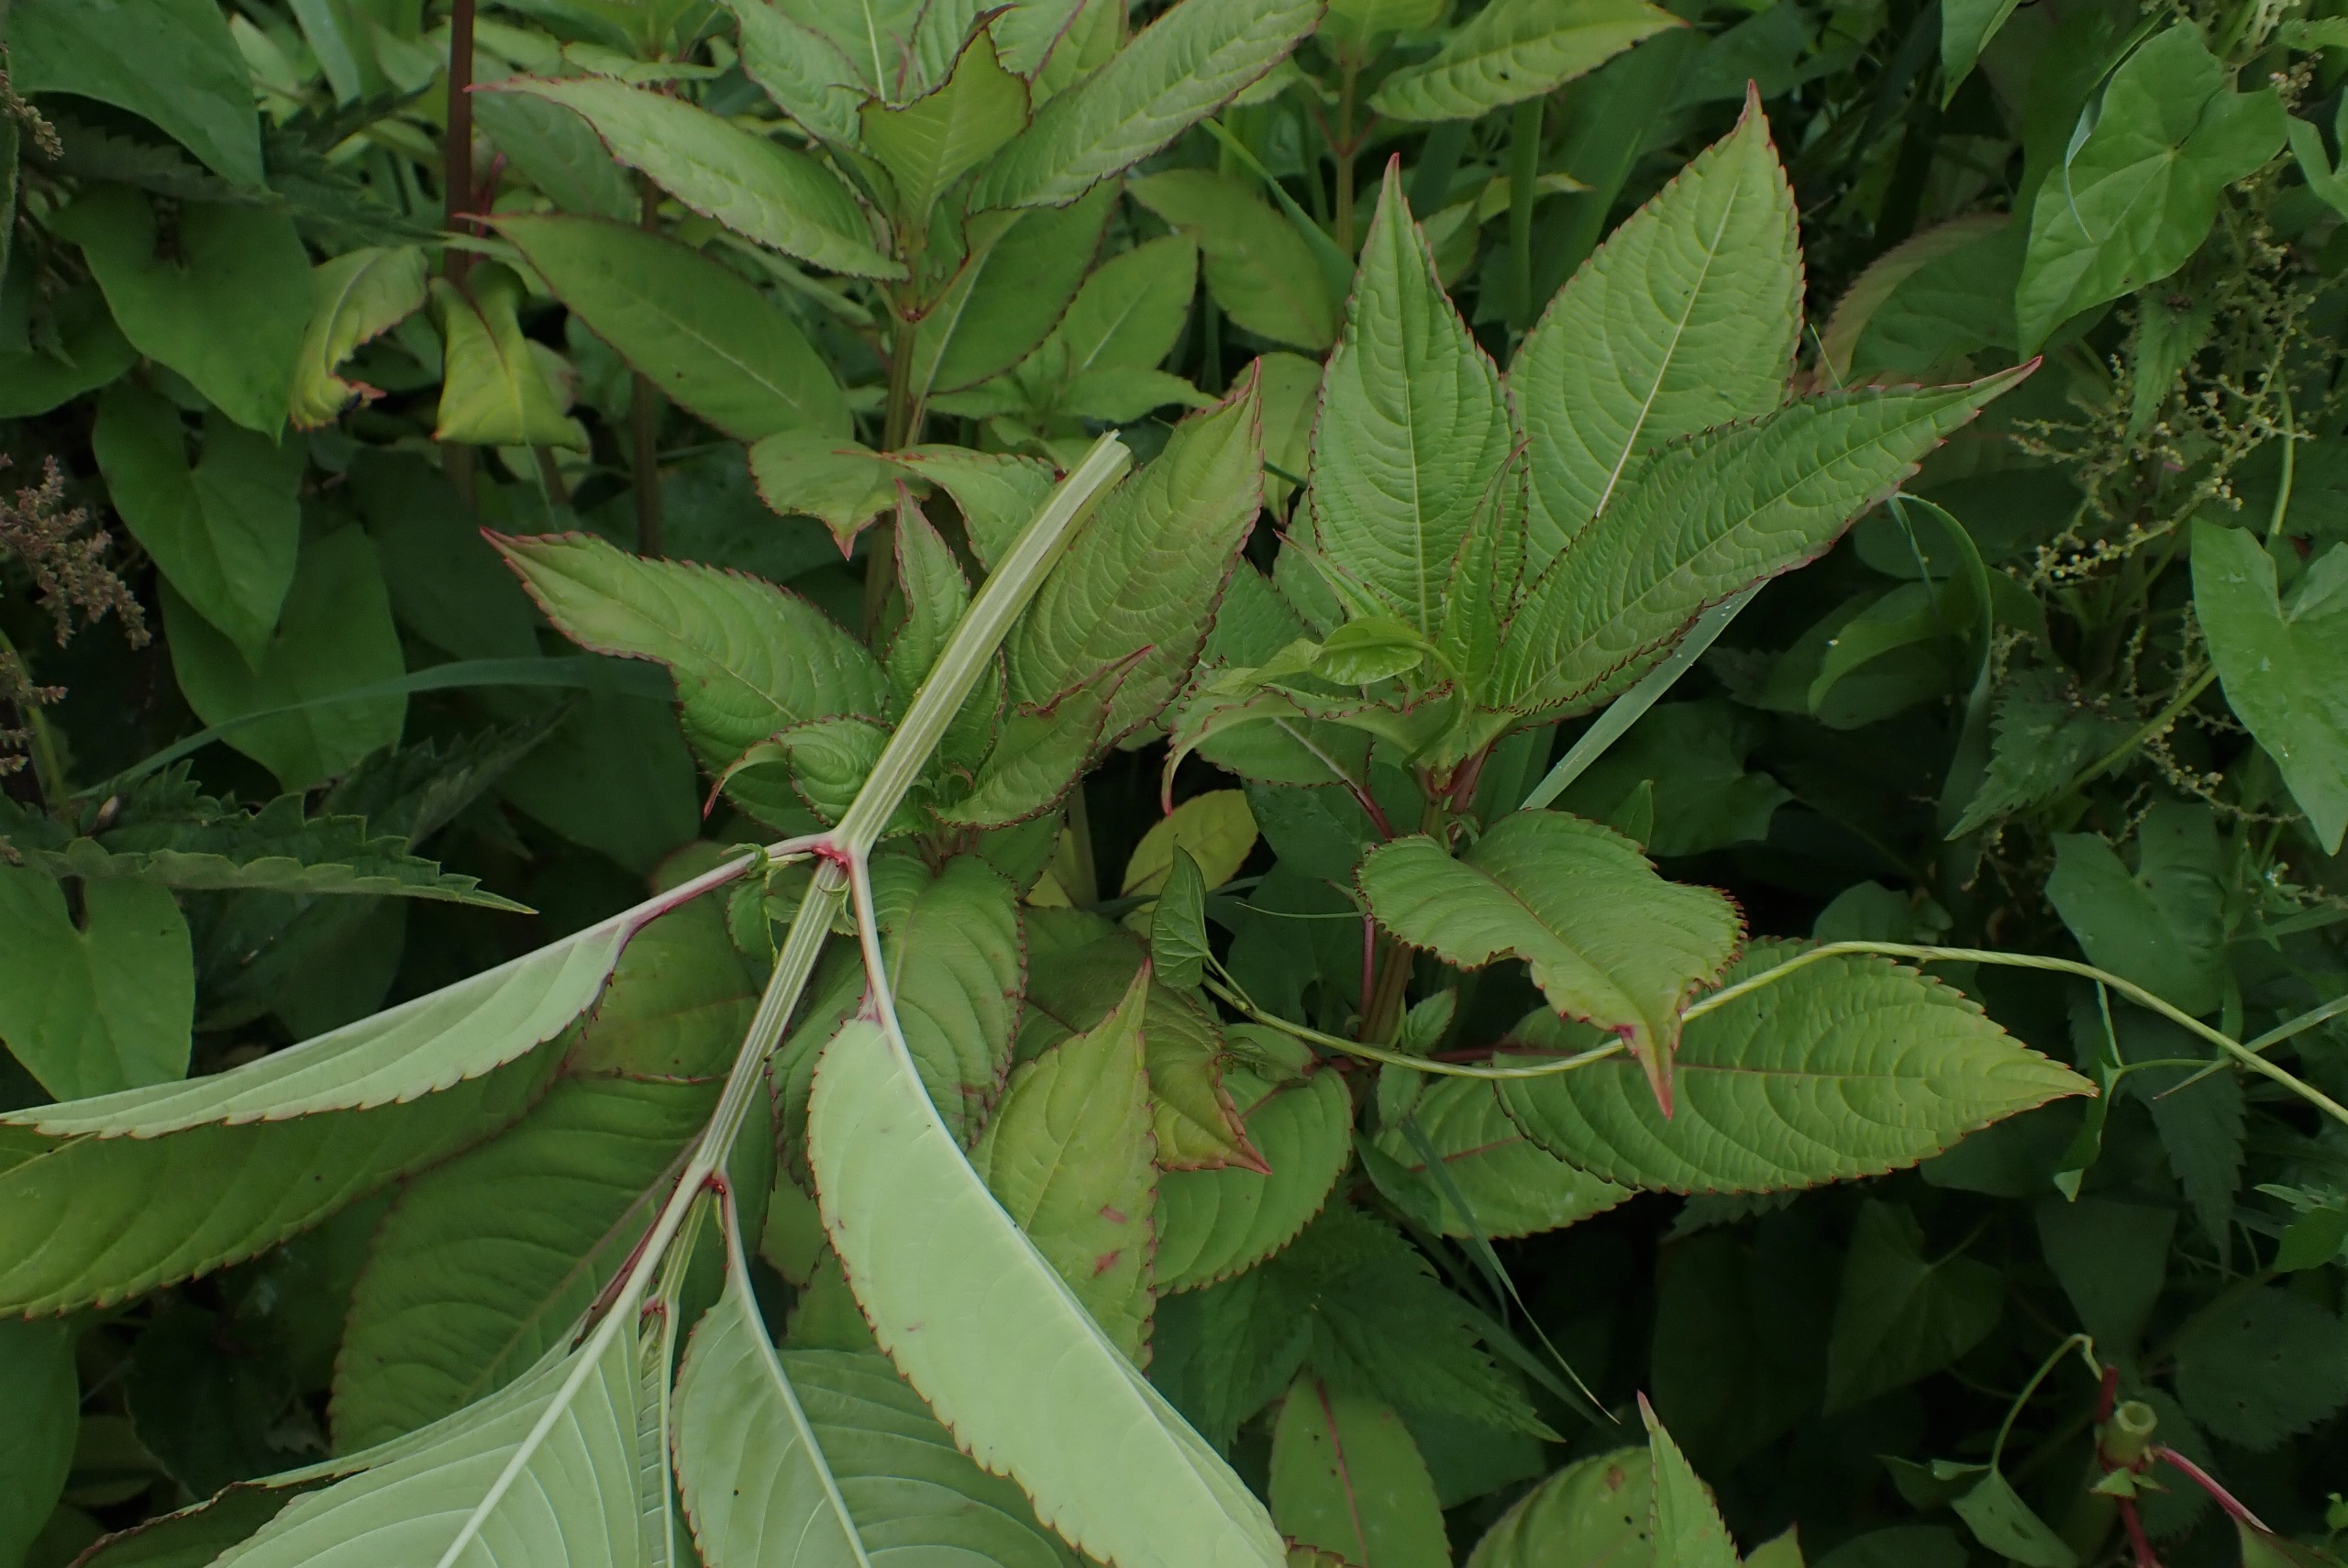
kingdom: Plantae
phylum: Tracheophyta
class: Magnoliopsida
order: Ericales
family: Balsaminaceae
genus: Impatiens
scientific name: Impatiens glandulifera
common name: Kæmpe-balsamin
